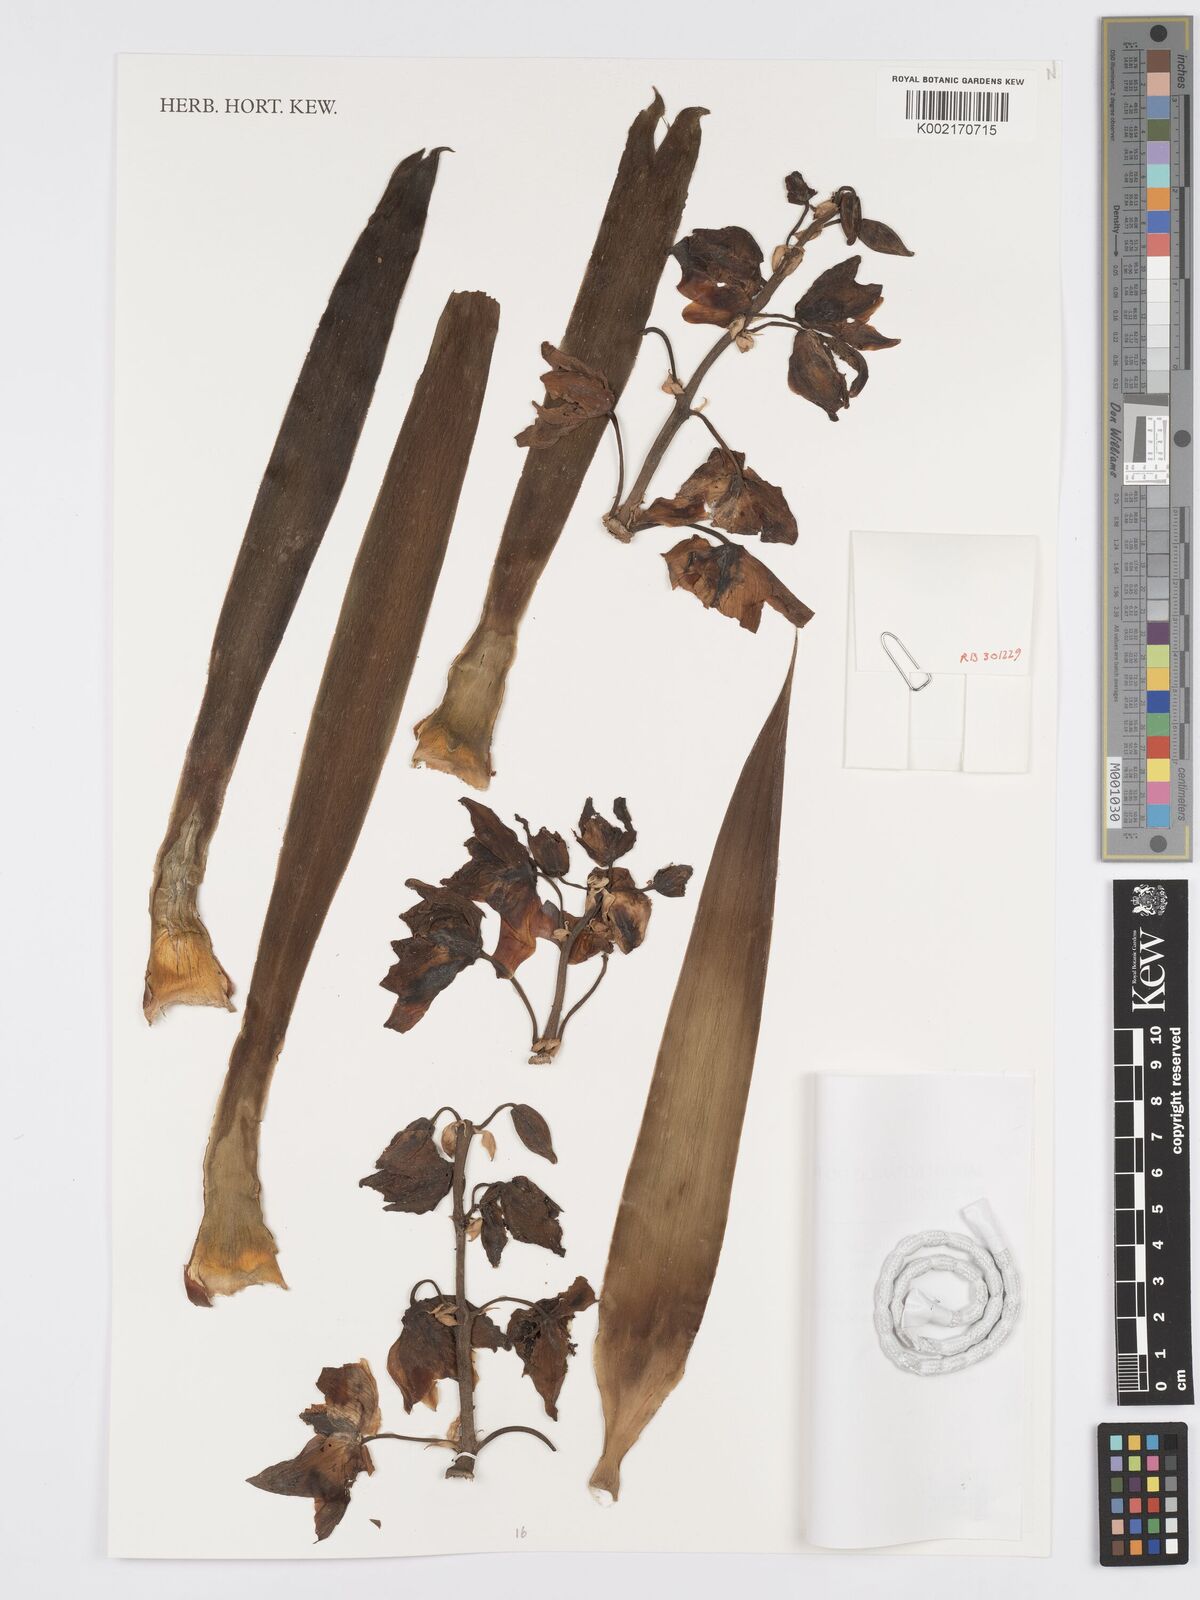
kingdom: Plantae
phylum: Tracheophyta
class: Liliopsida
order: Asparagales
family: Asparagaceae
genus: Yucca
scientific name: Yucca
